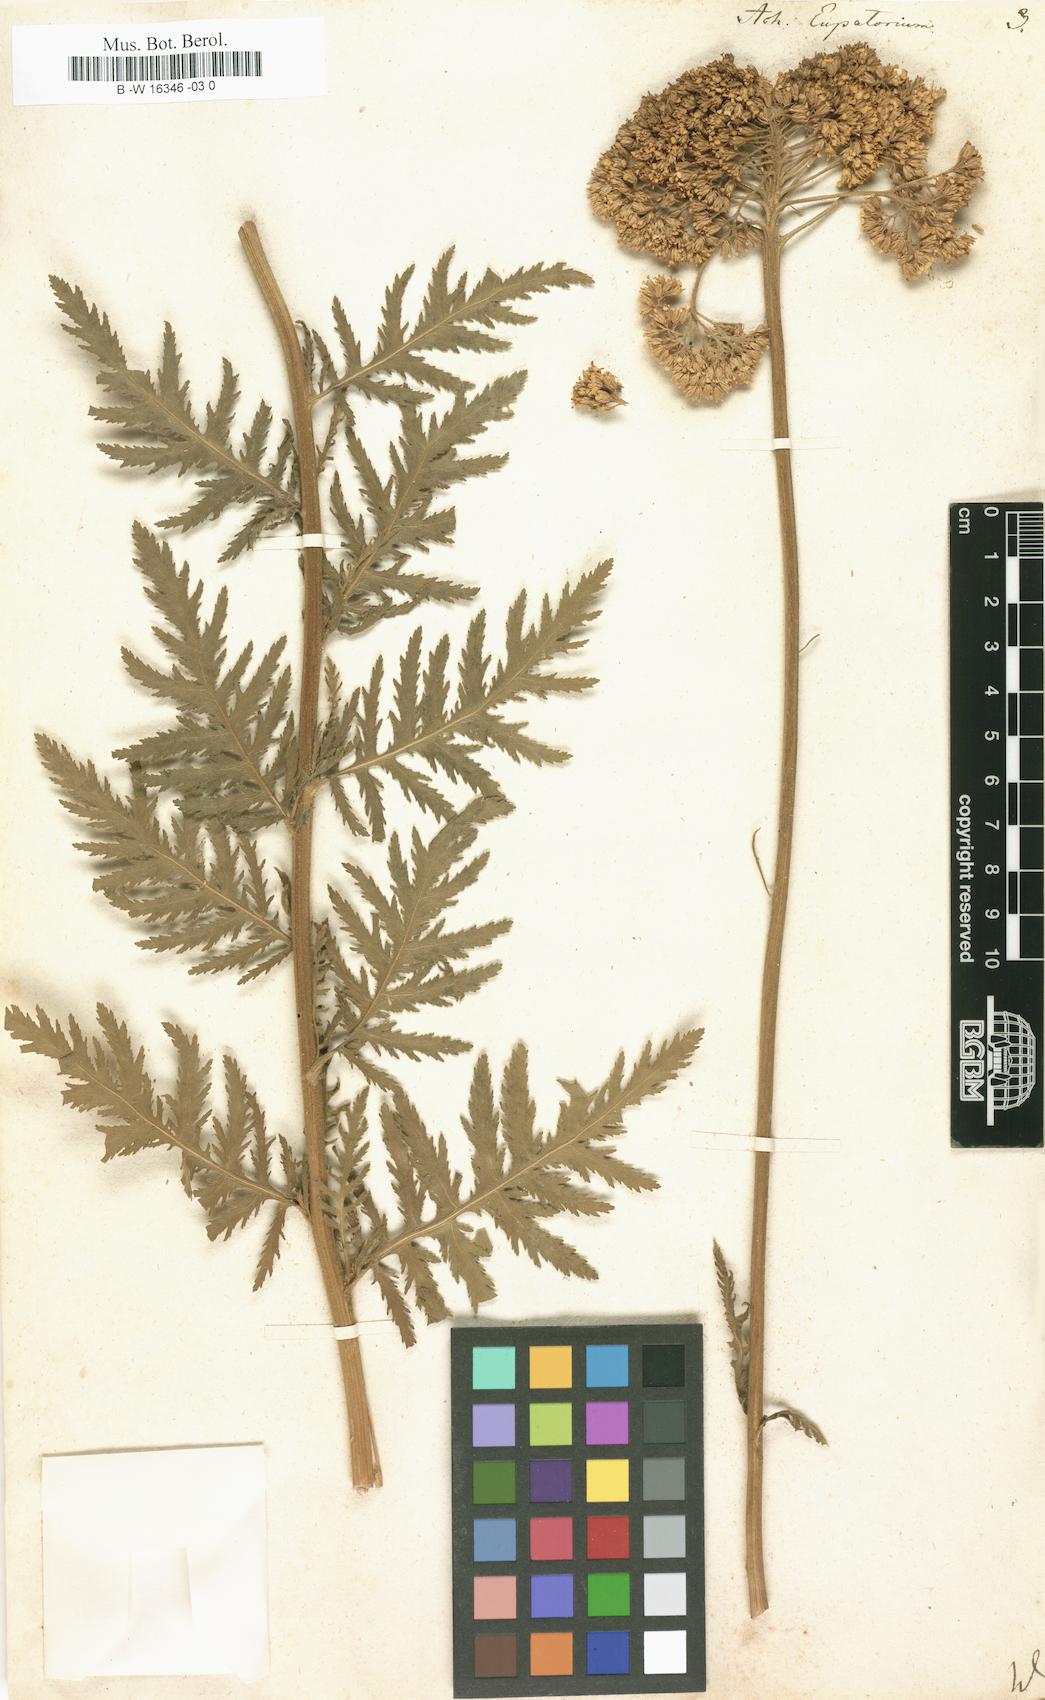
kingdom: Plantae
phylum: Tracheophyta
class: Magnoliopsida
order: Asterales
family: Asteraceae
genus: Achillea
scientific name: Achillea filipendulina
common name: Fernleaf yarrow
